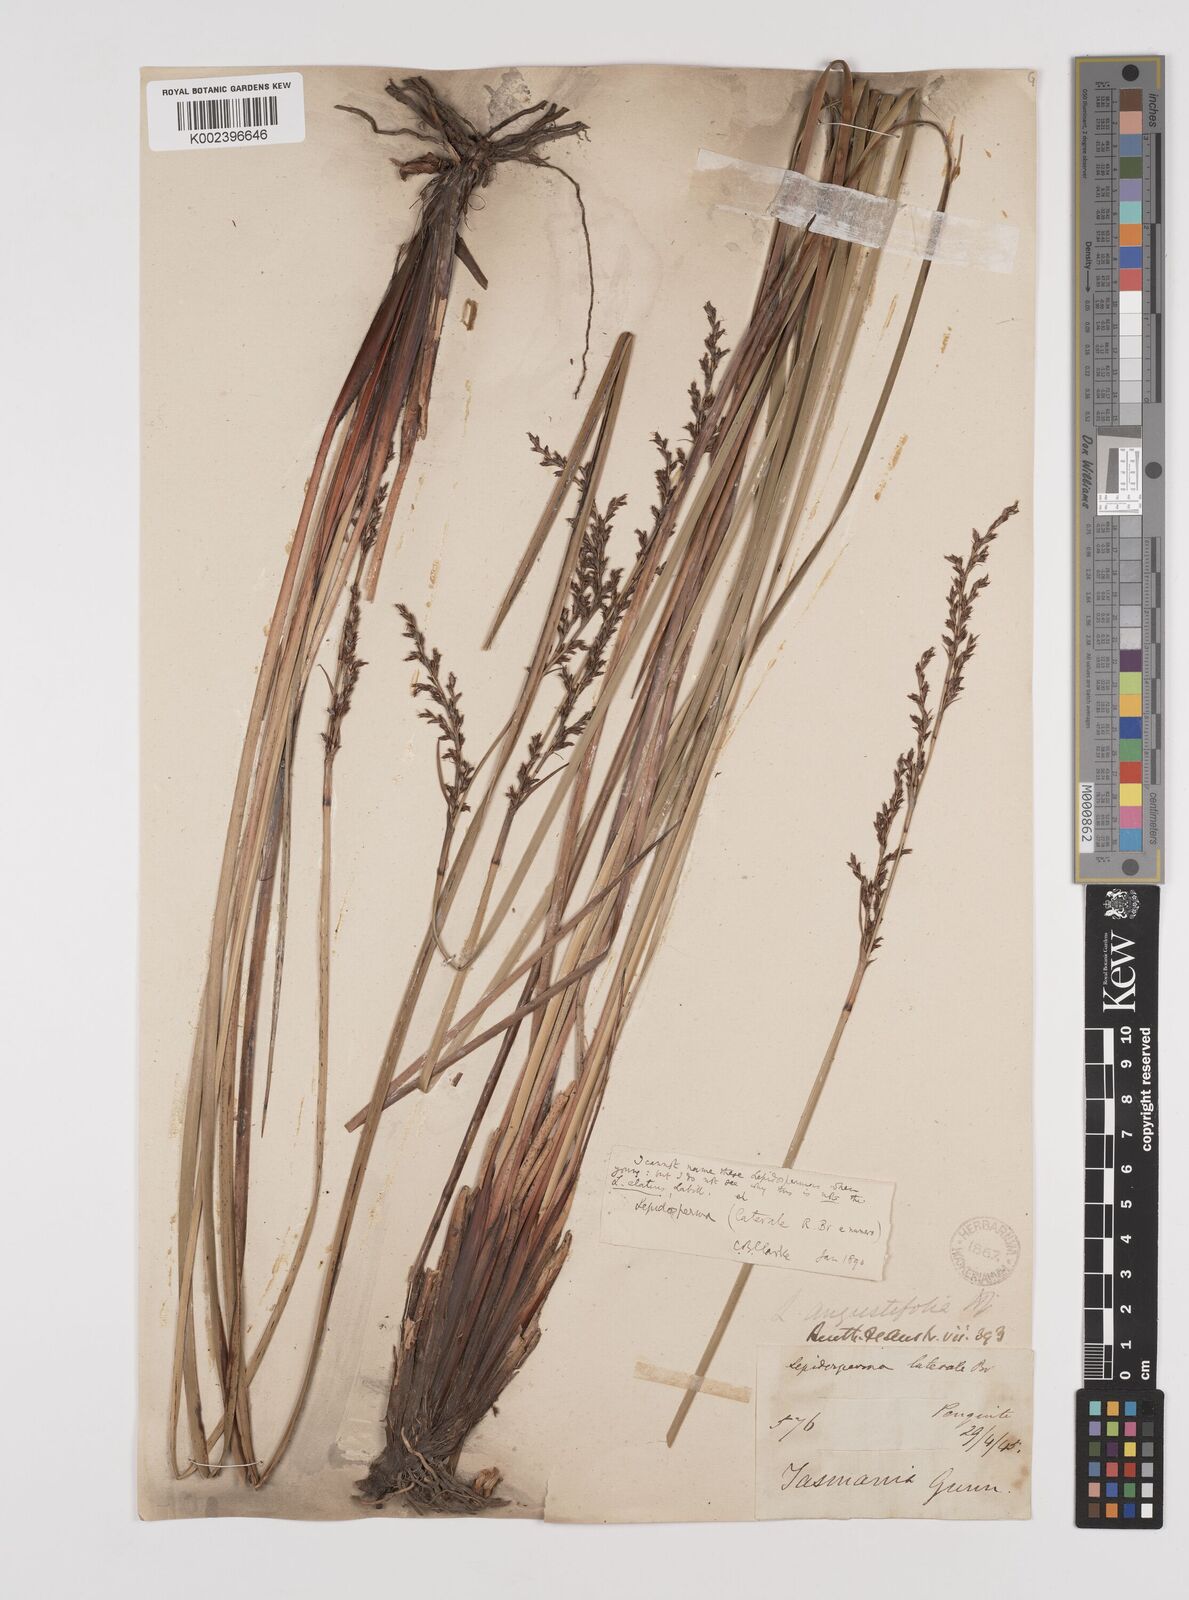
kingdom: Plantae
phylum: Tracheophyta
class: Liliopsida
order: Poales
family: Cyperaceae
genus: Lepidosperma
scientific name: Lepidosperma elatius
